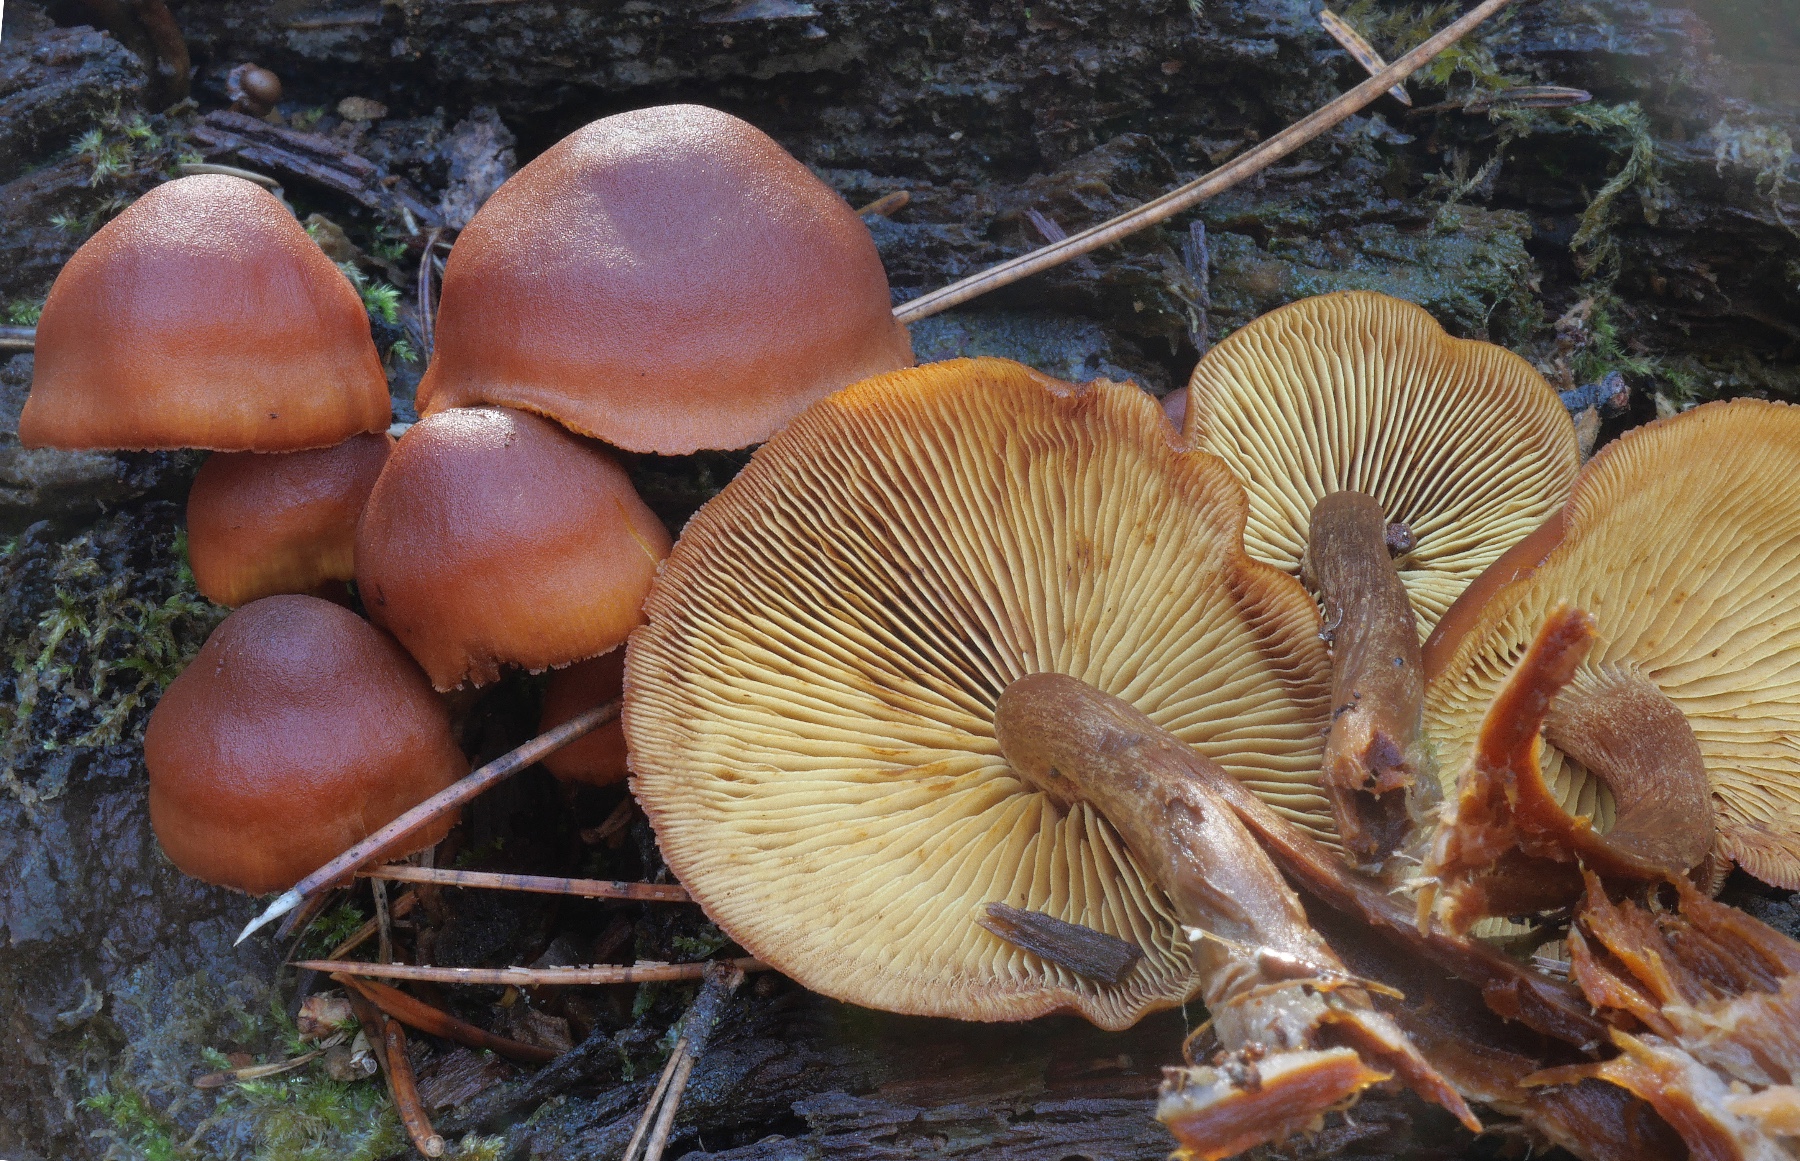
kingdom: Fungi
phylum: Basidiomycota
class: Agaricomycetes
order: Agaricales
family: Hymenogastraceae
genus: Gymnopilus
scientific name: Gymnopilus picreus
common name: puklet flammehat
